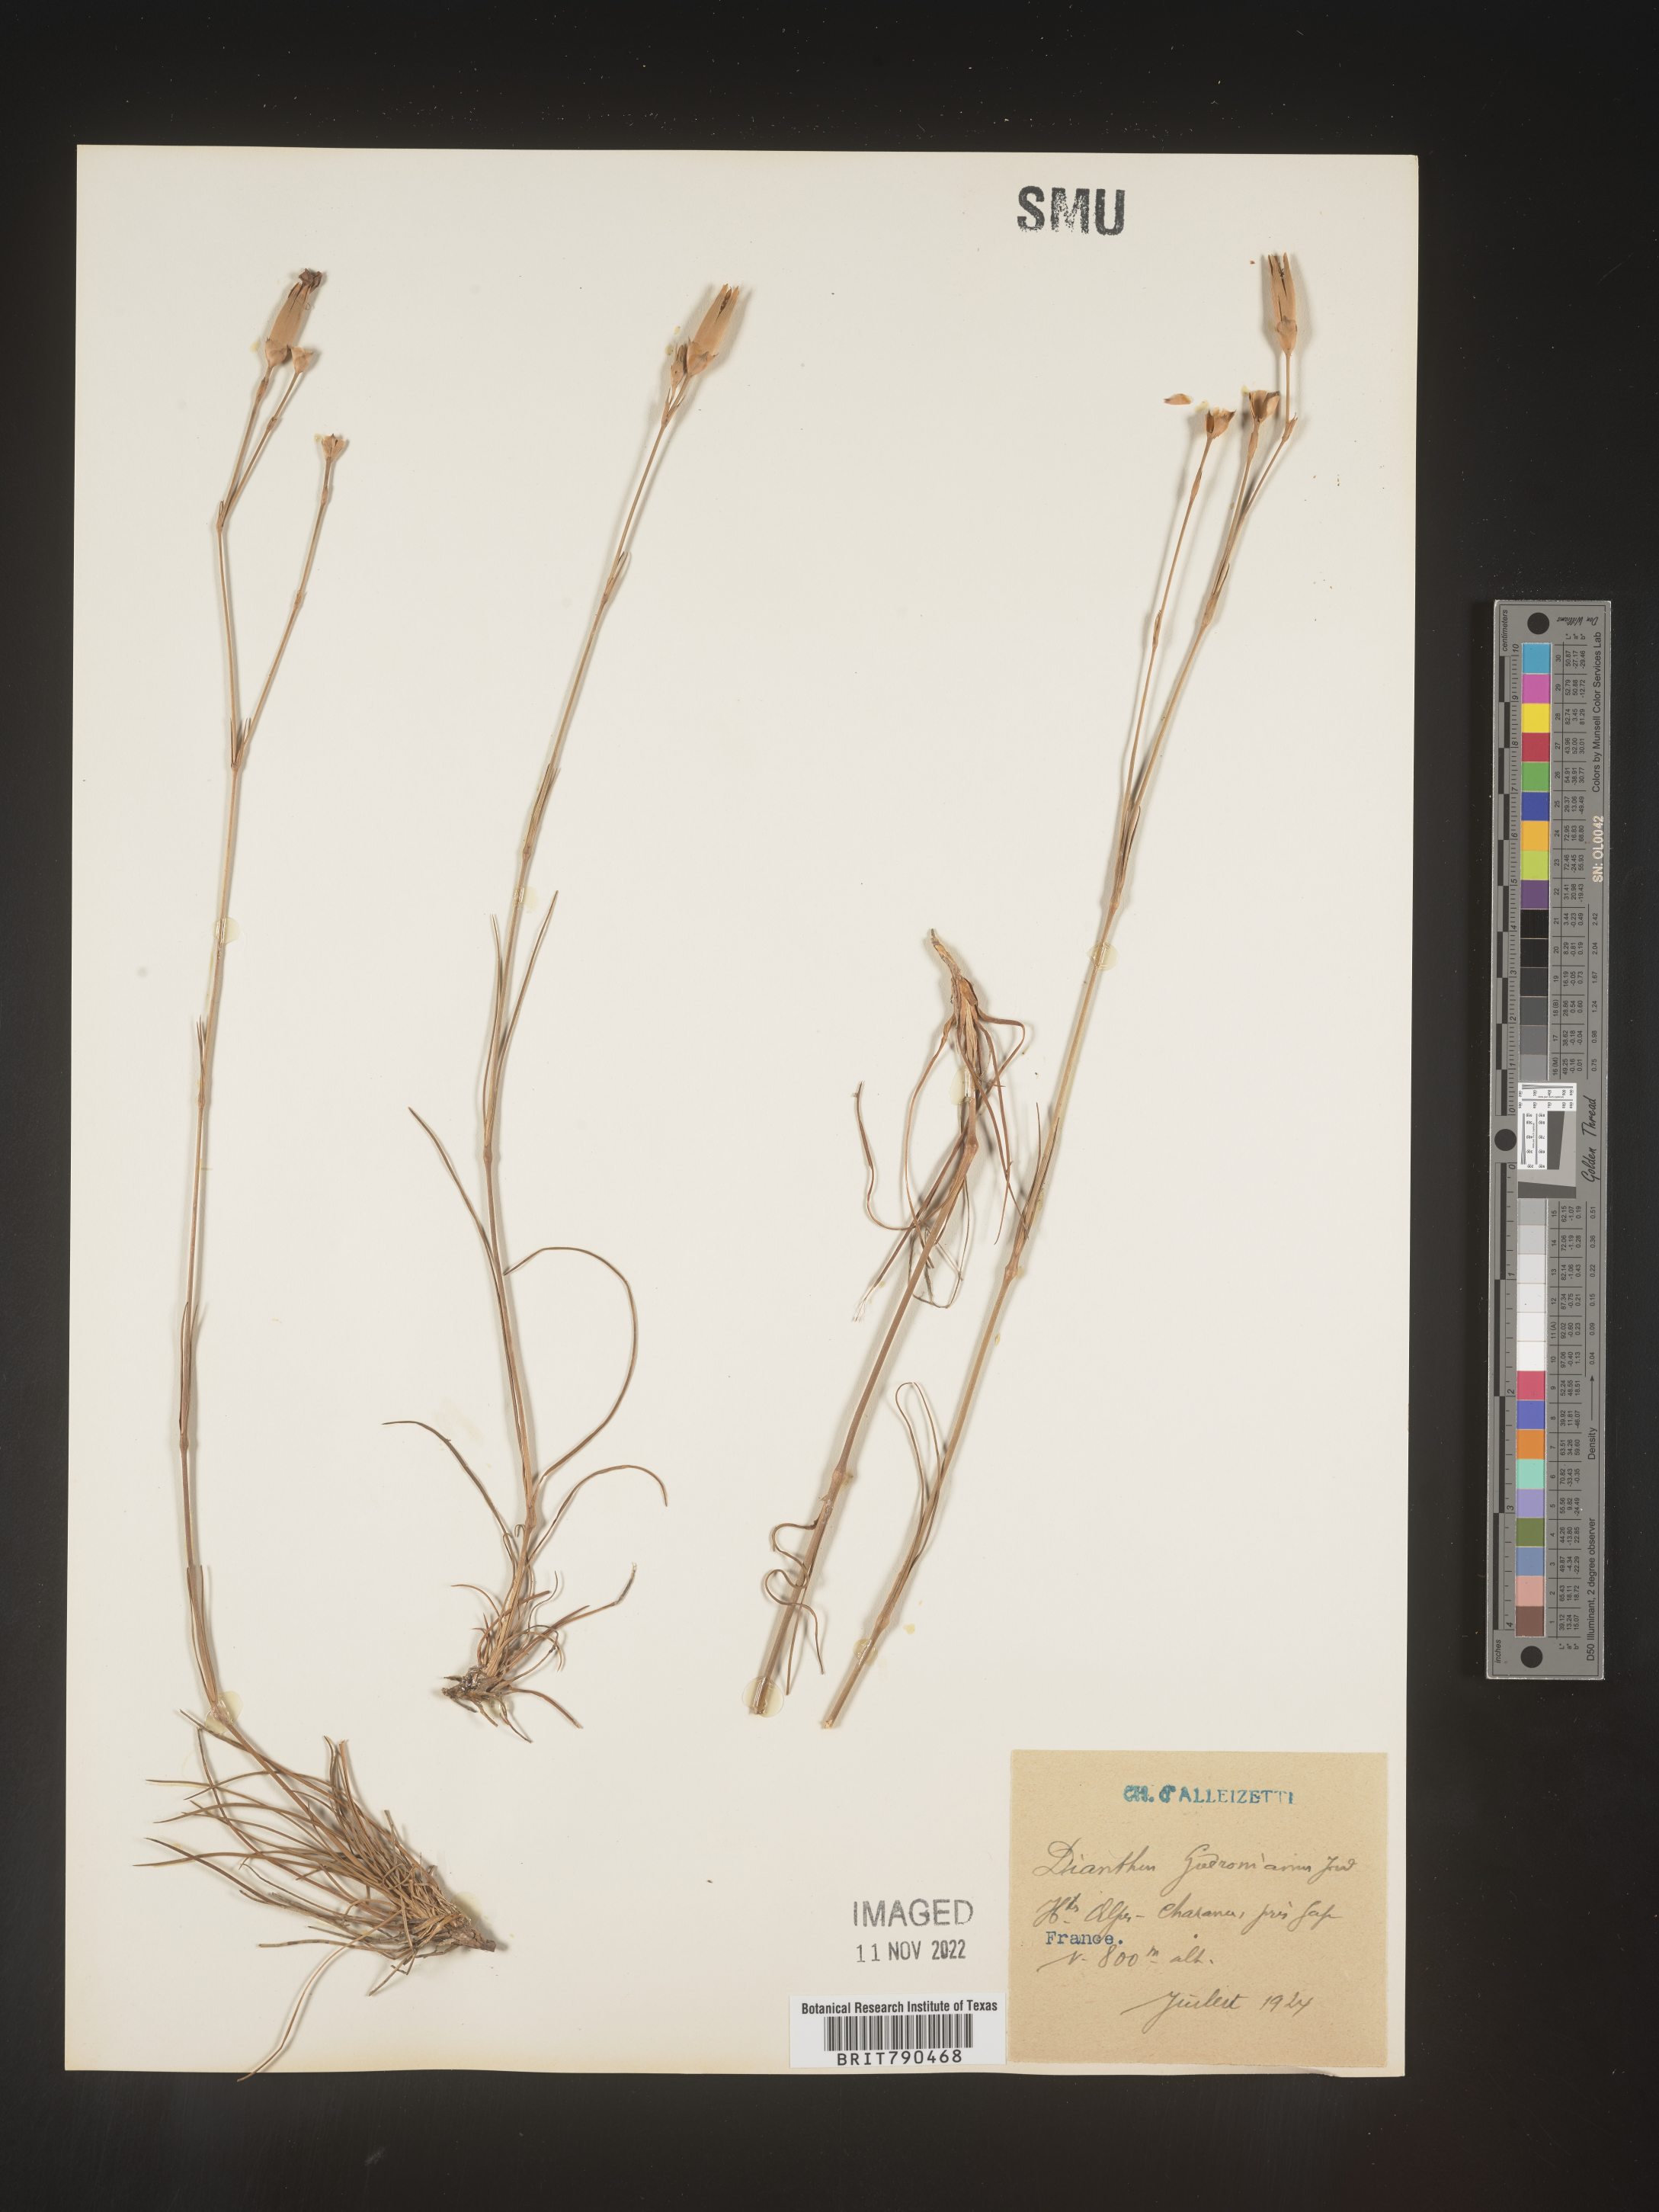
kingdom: Plantae
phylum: Tracheophyta
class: Magnoliopsida
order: Caryophyllales
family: Caryophyllaceae
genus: Dianthus
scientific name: Dianthus
